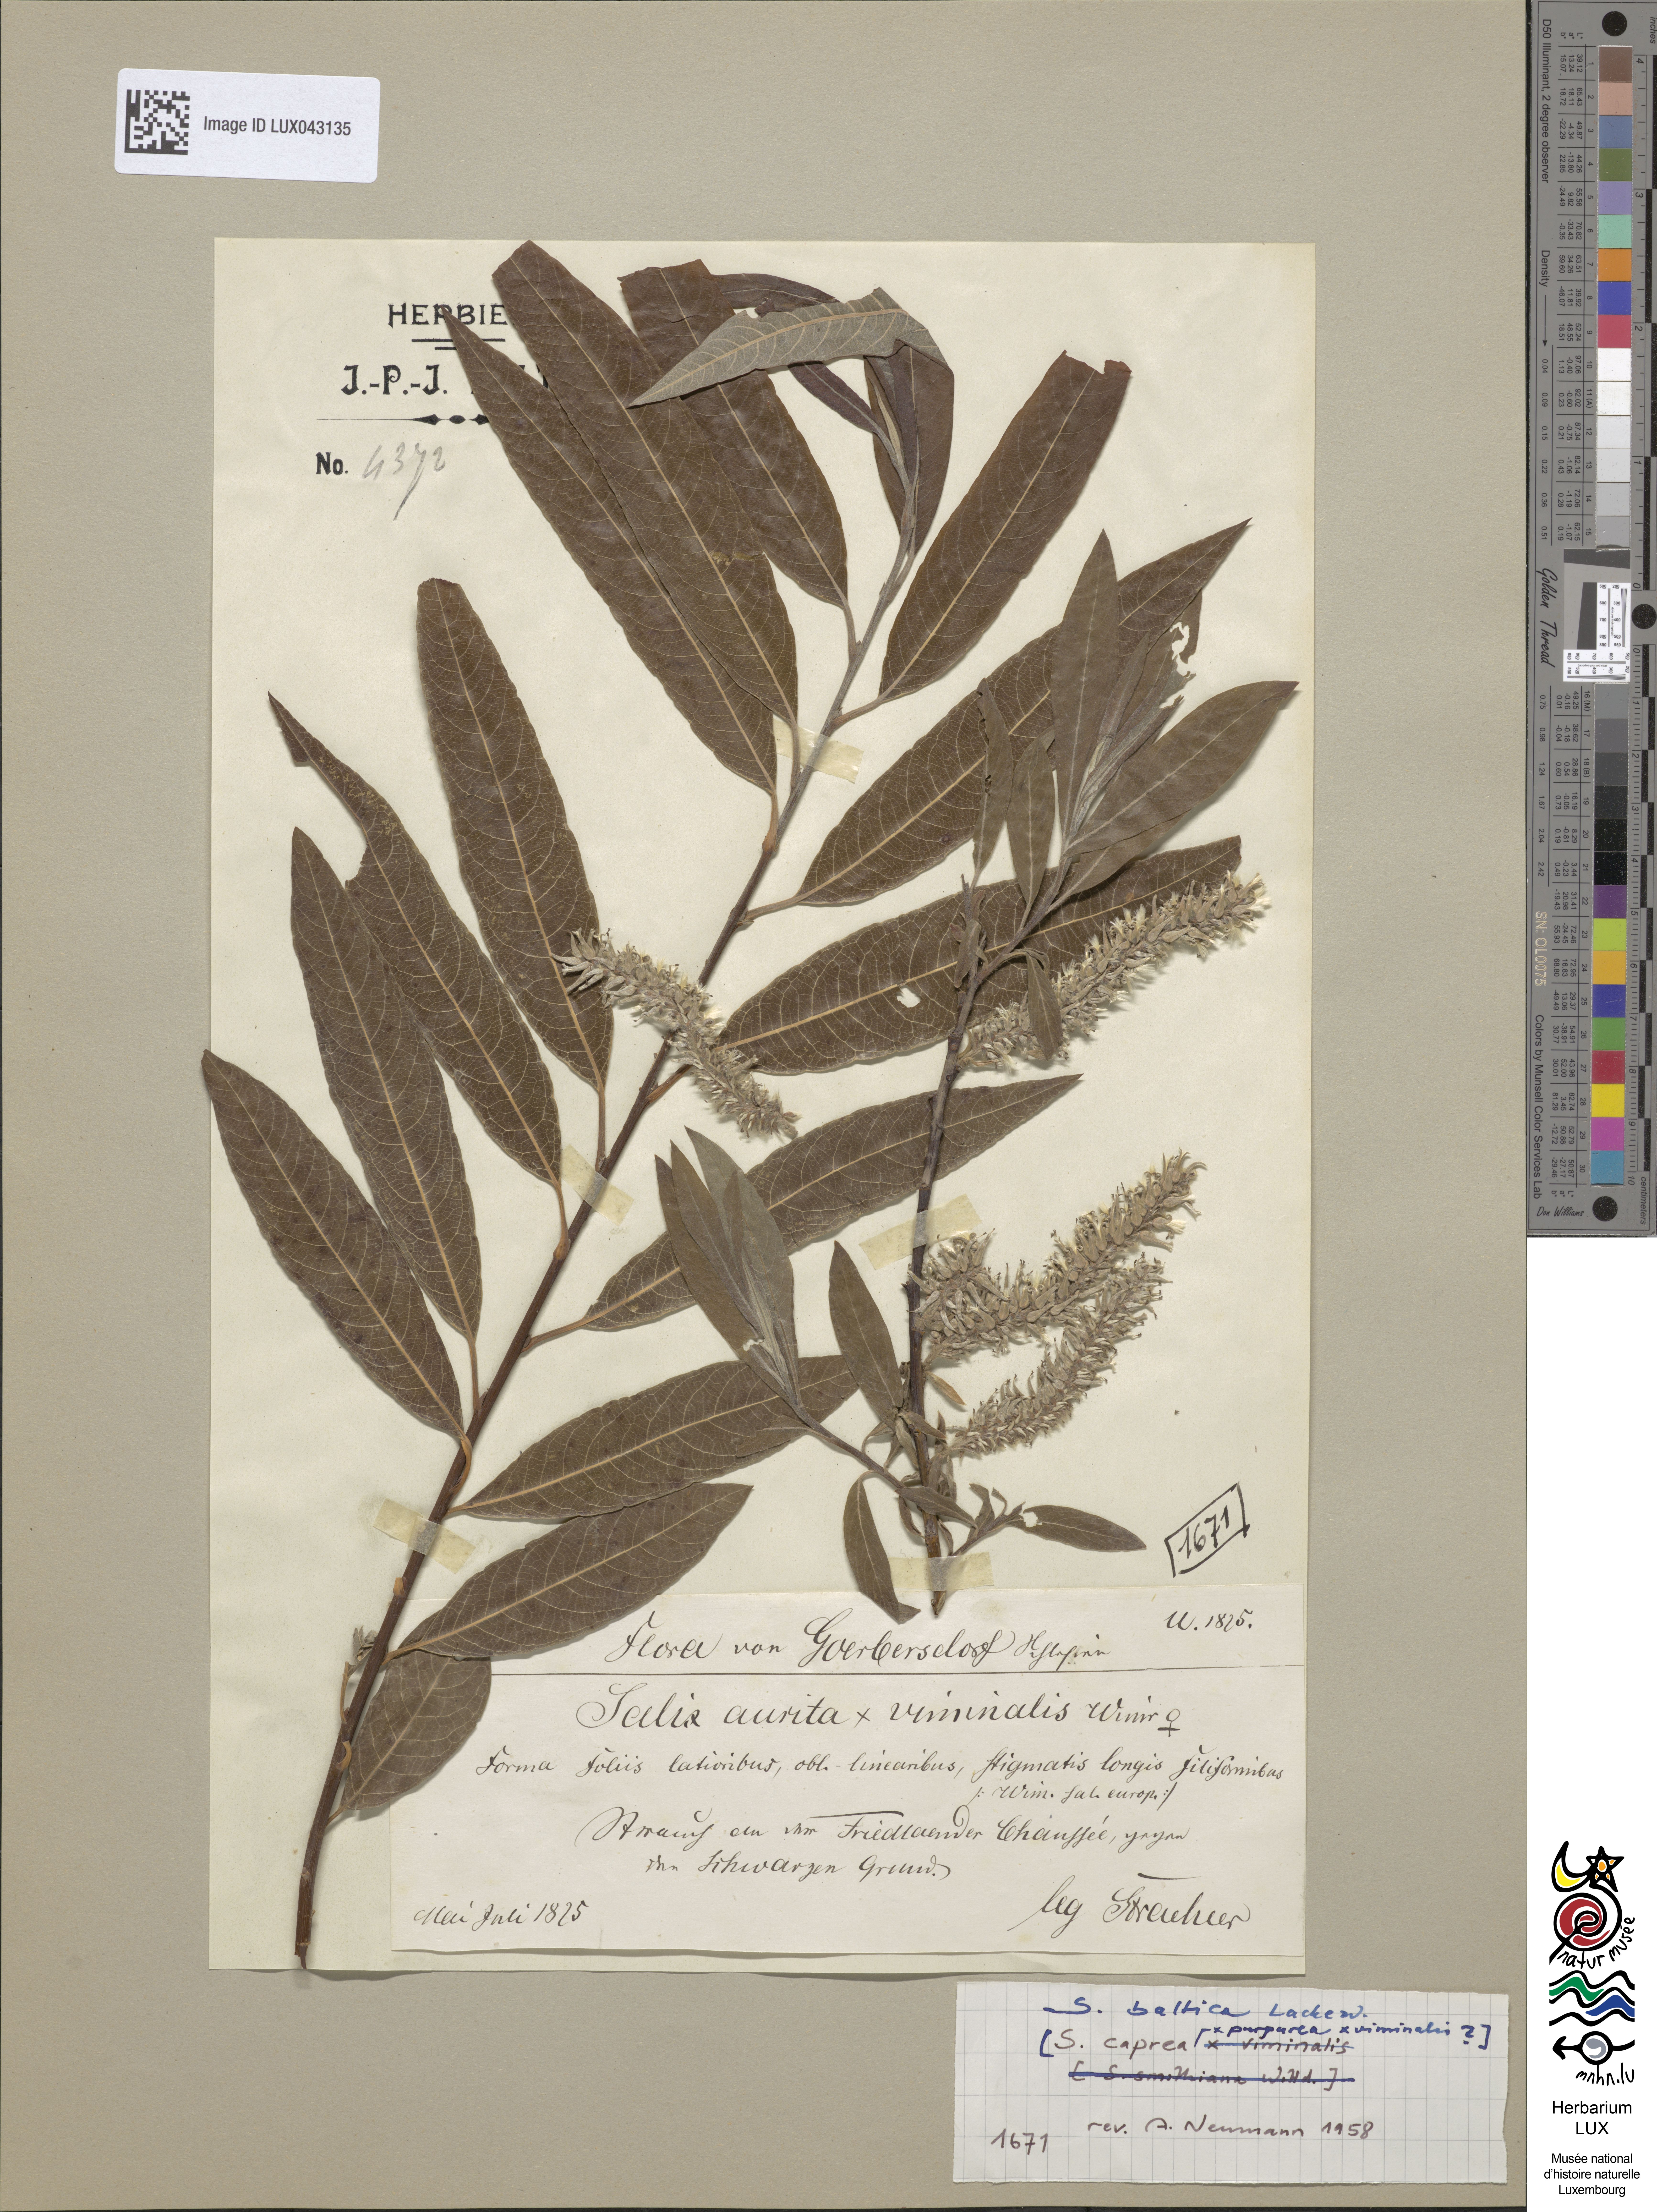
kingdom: Plantae
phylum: Tracheophyta
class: Magnoliopsida
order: Malpighiales
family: Salicaceae
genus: Salix
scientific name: Salix
